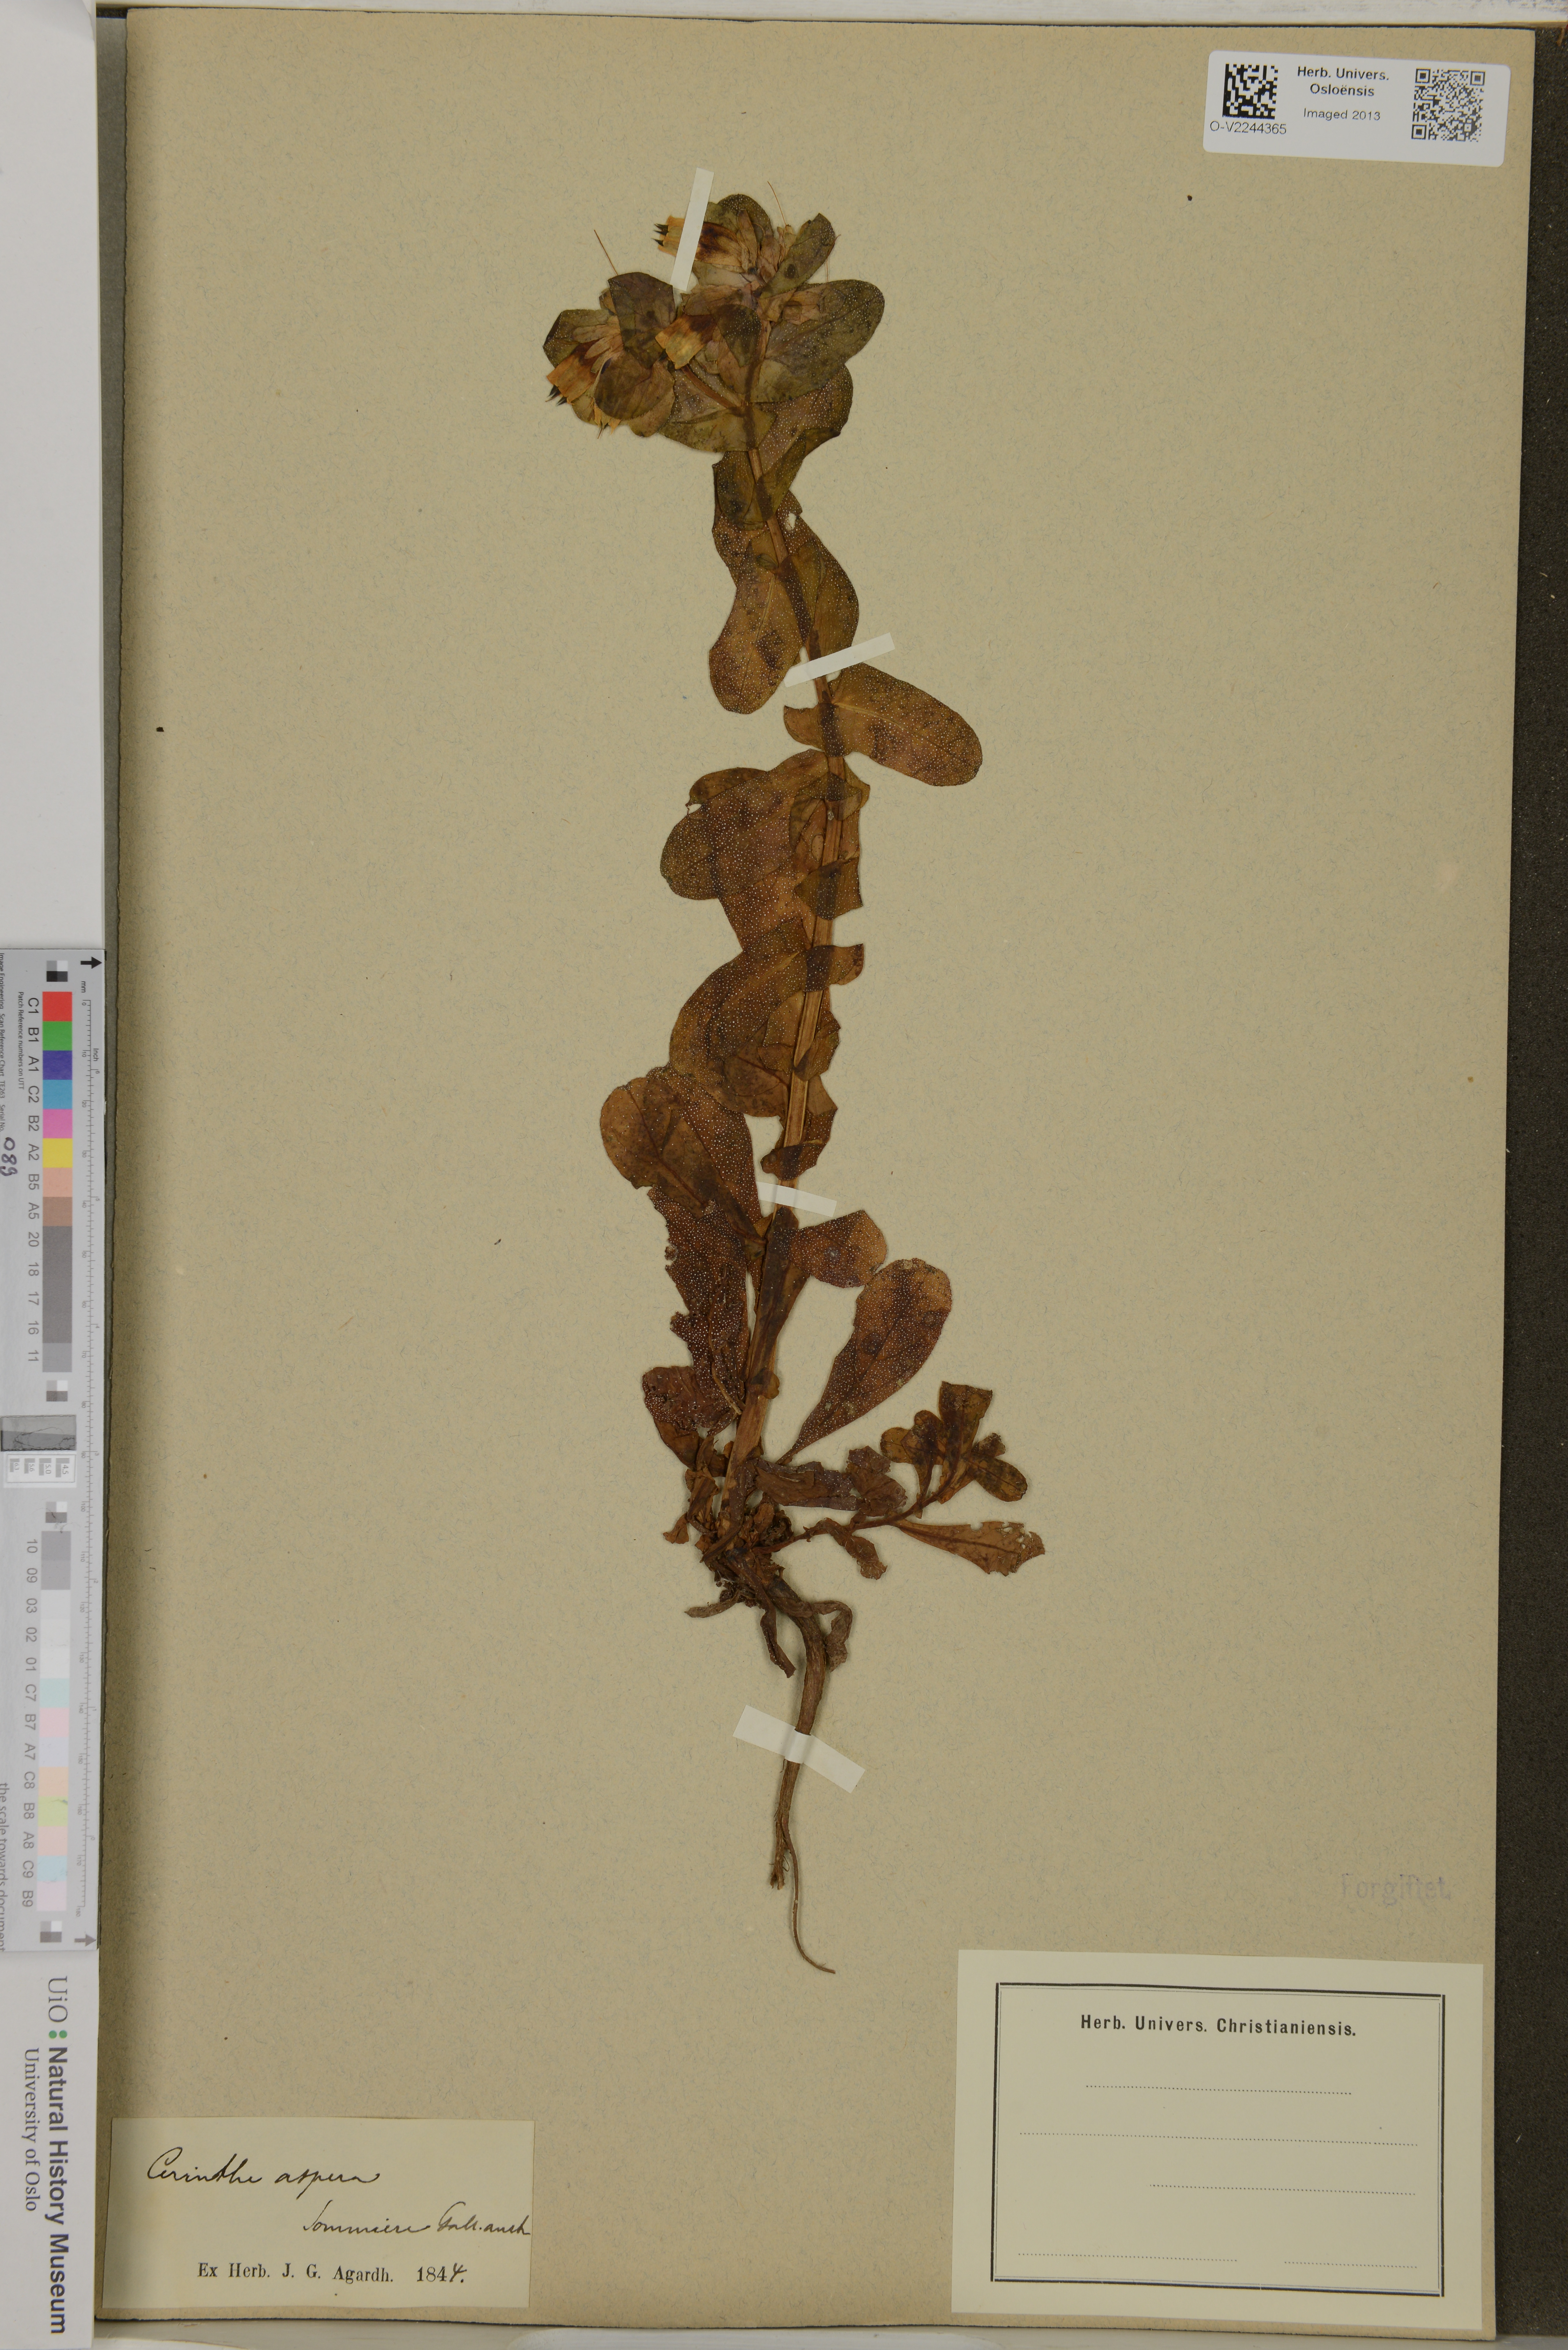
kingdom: Plantae
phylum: Tracheophyta
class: Magnoliopsida
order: Boraginales
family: Boraginaceae
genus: Cerinthe
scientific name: Cerinthe major
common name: Greater honeywort
